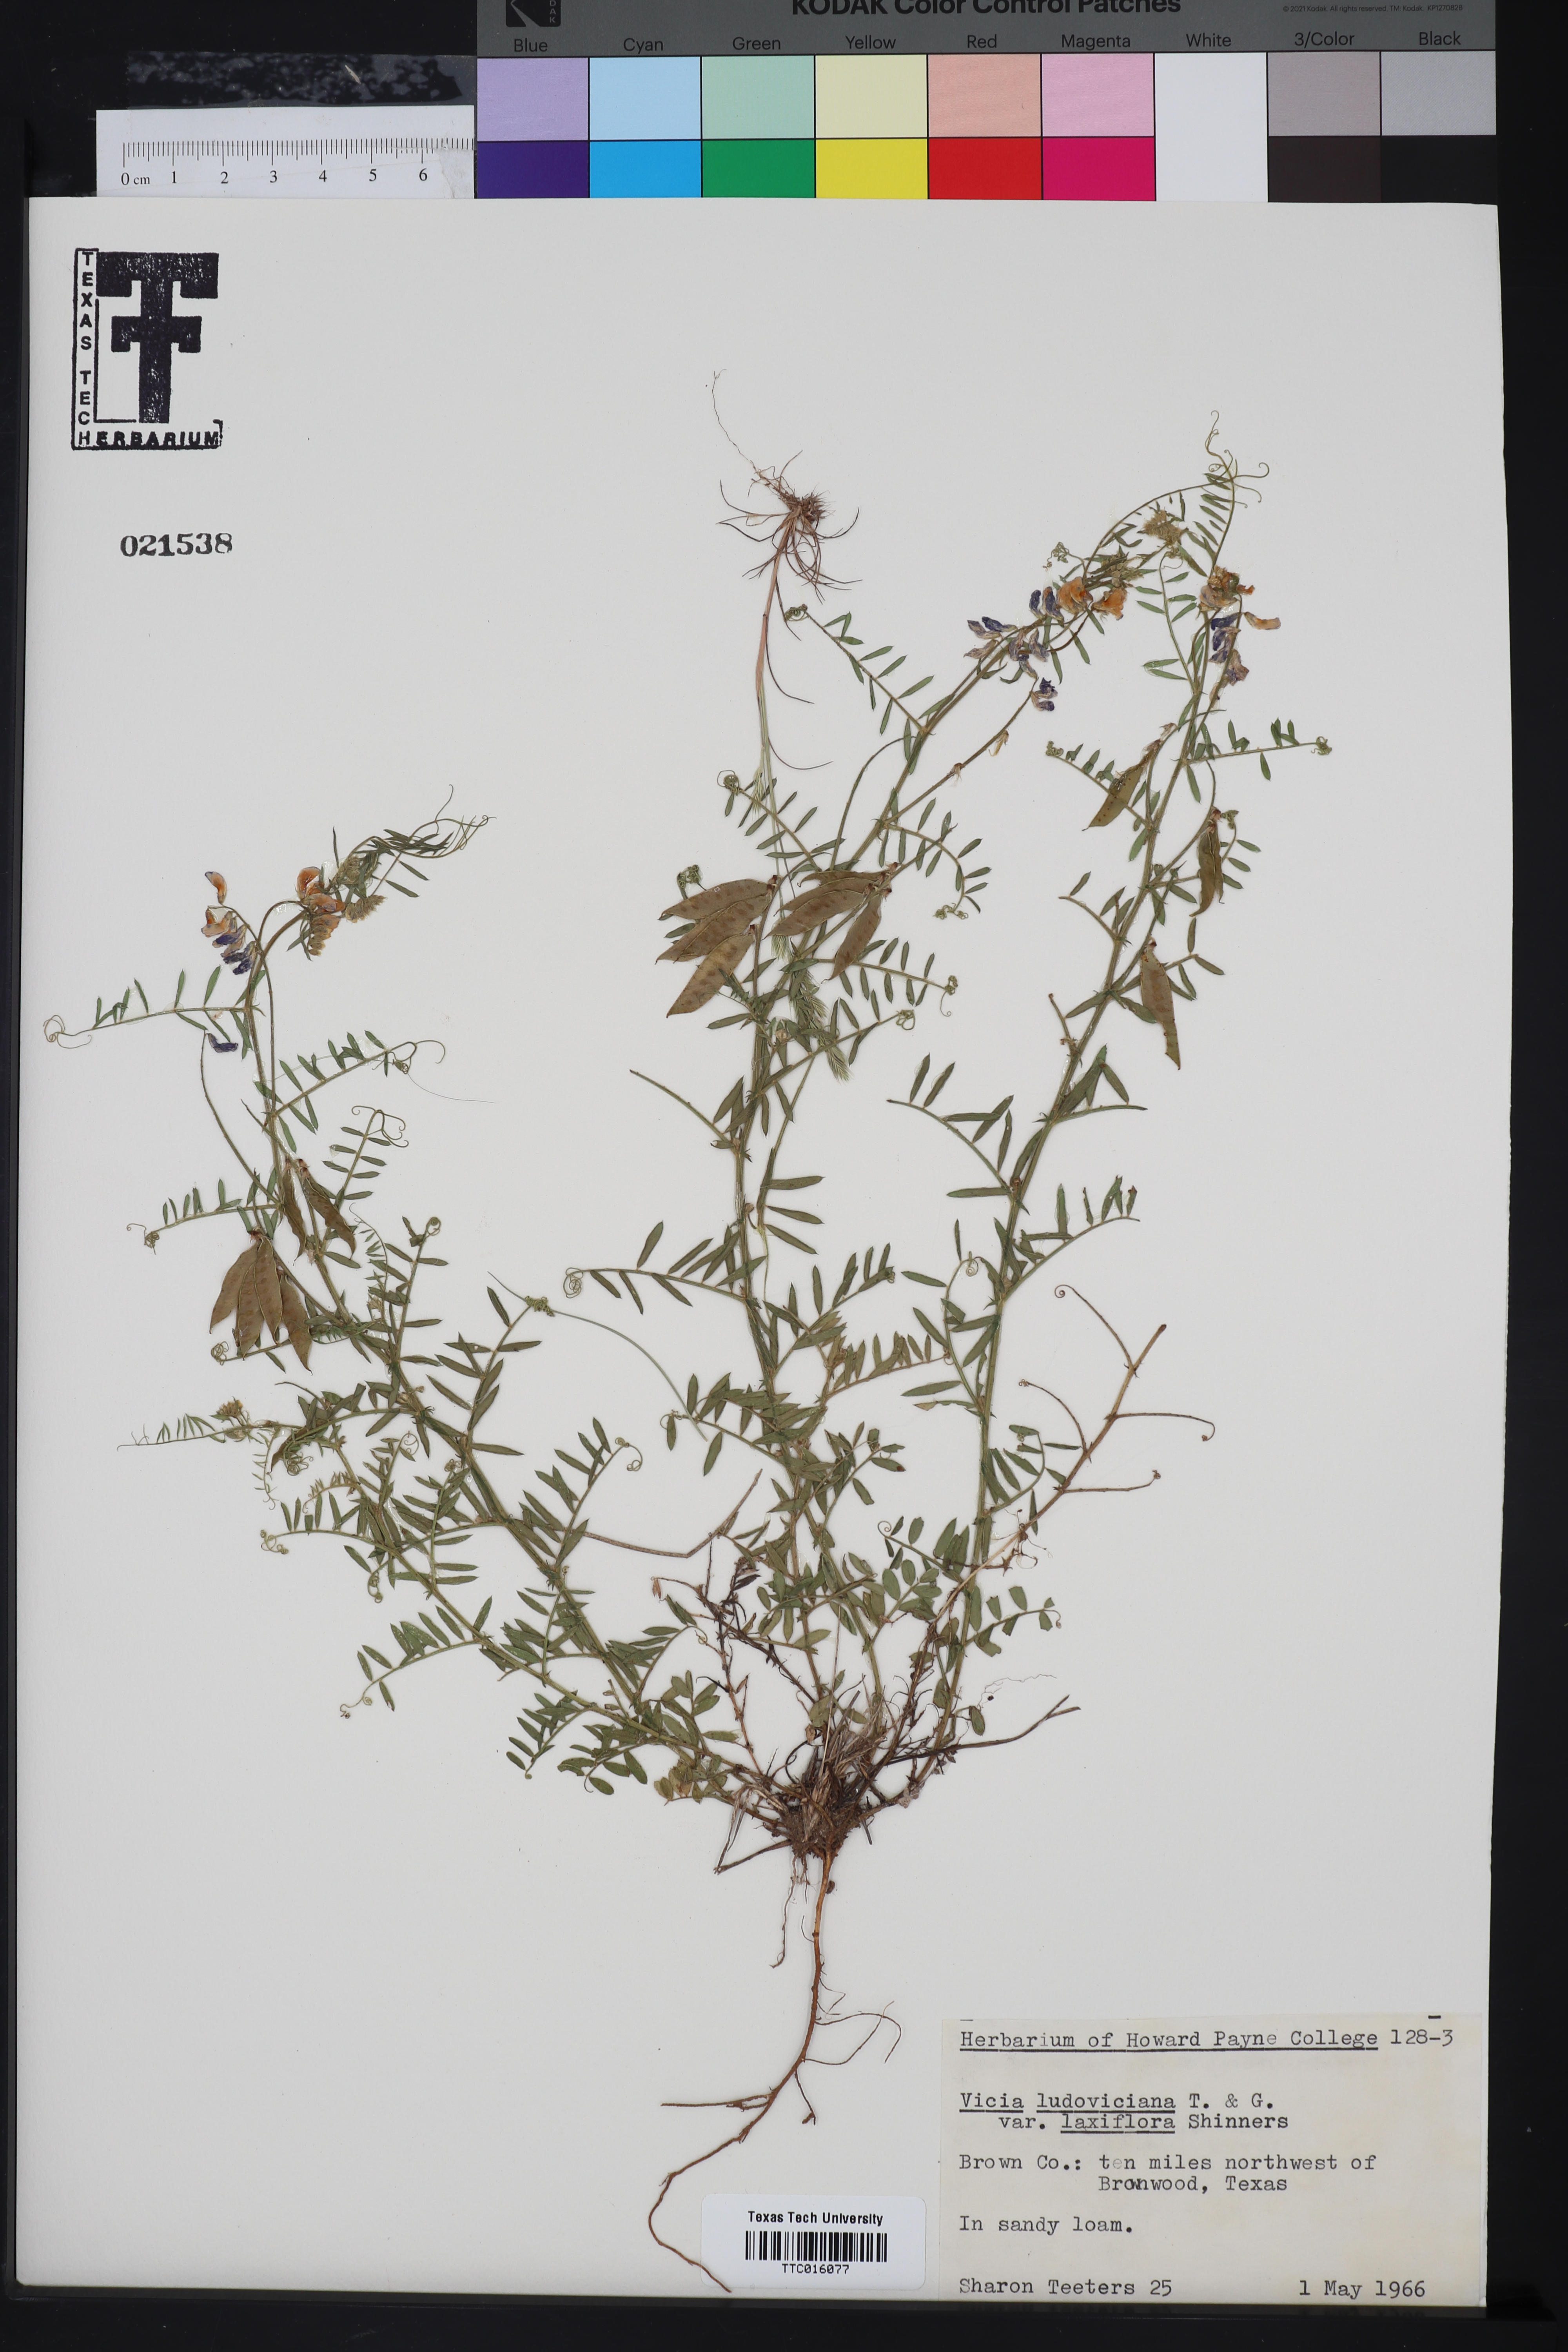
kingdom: Plantae
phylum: Tracheophyta
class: Magnoliopsida
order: Fabales
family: Fabaceae
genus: Vicia
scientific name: Vicia ludoviciana
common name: Louisiana vetch
